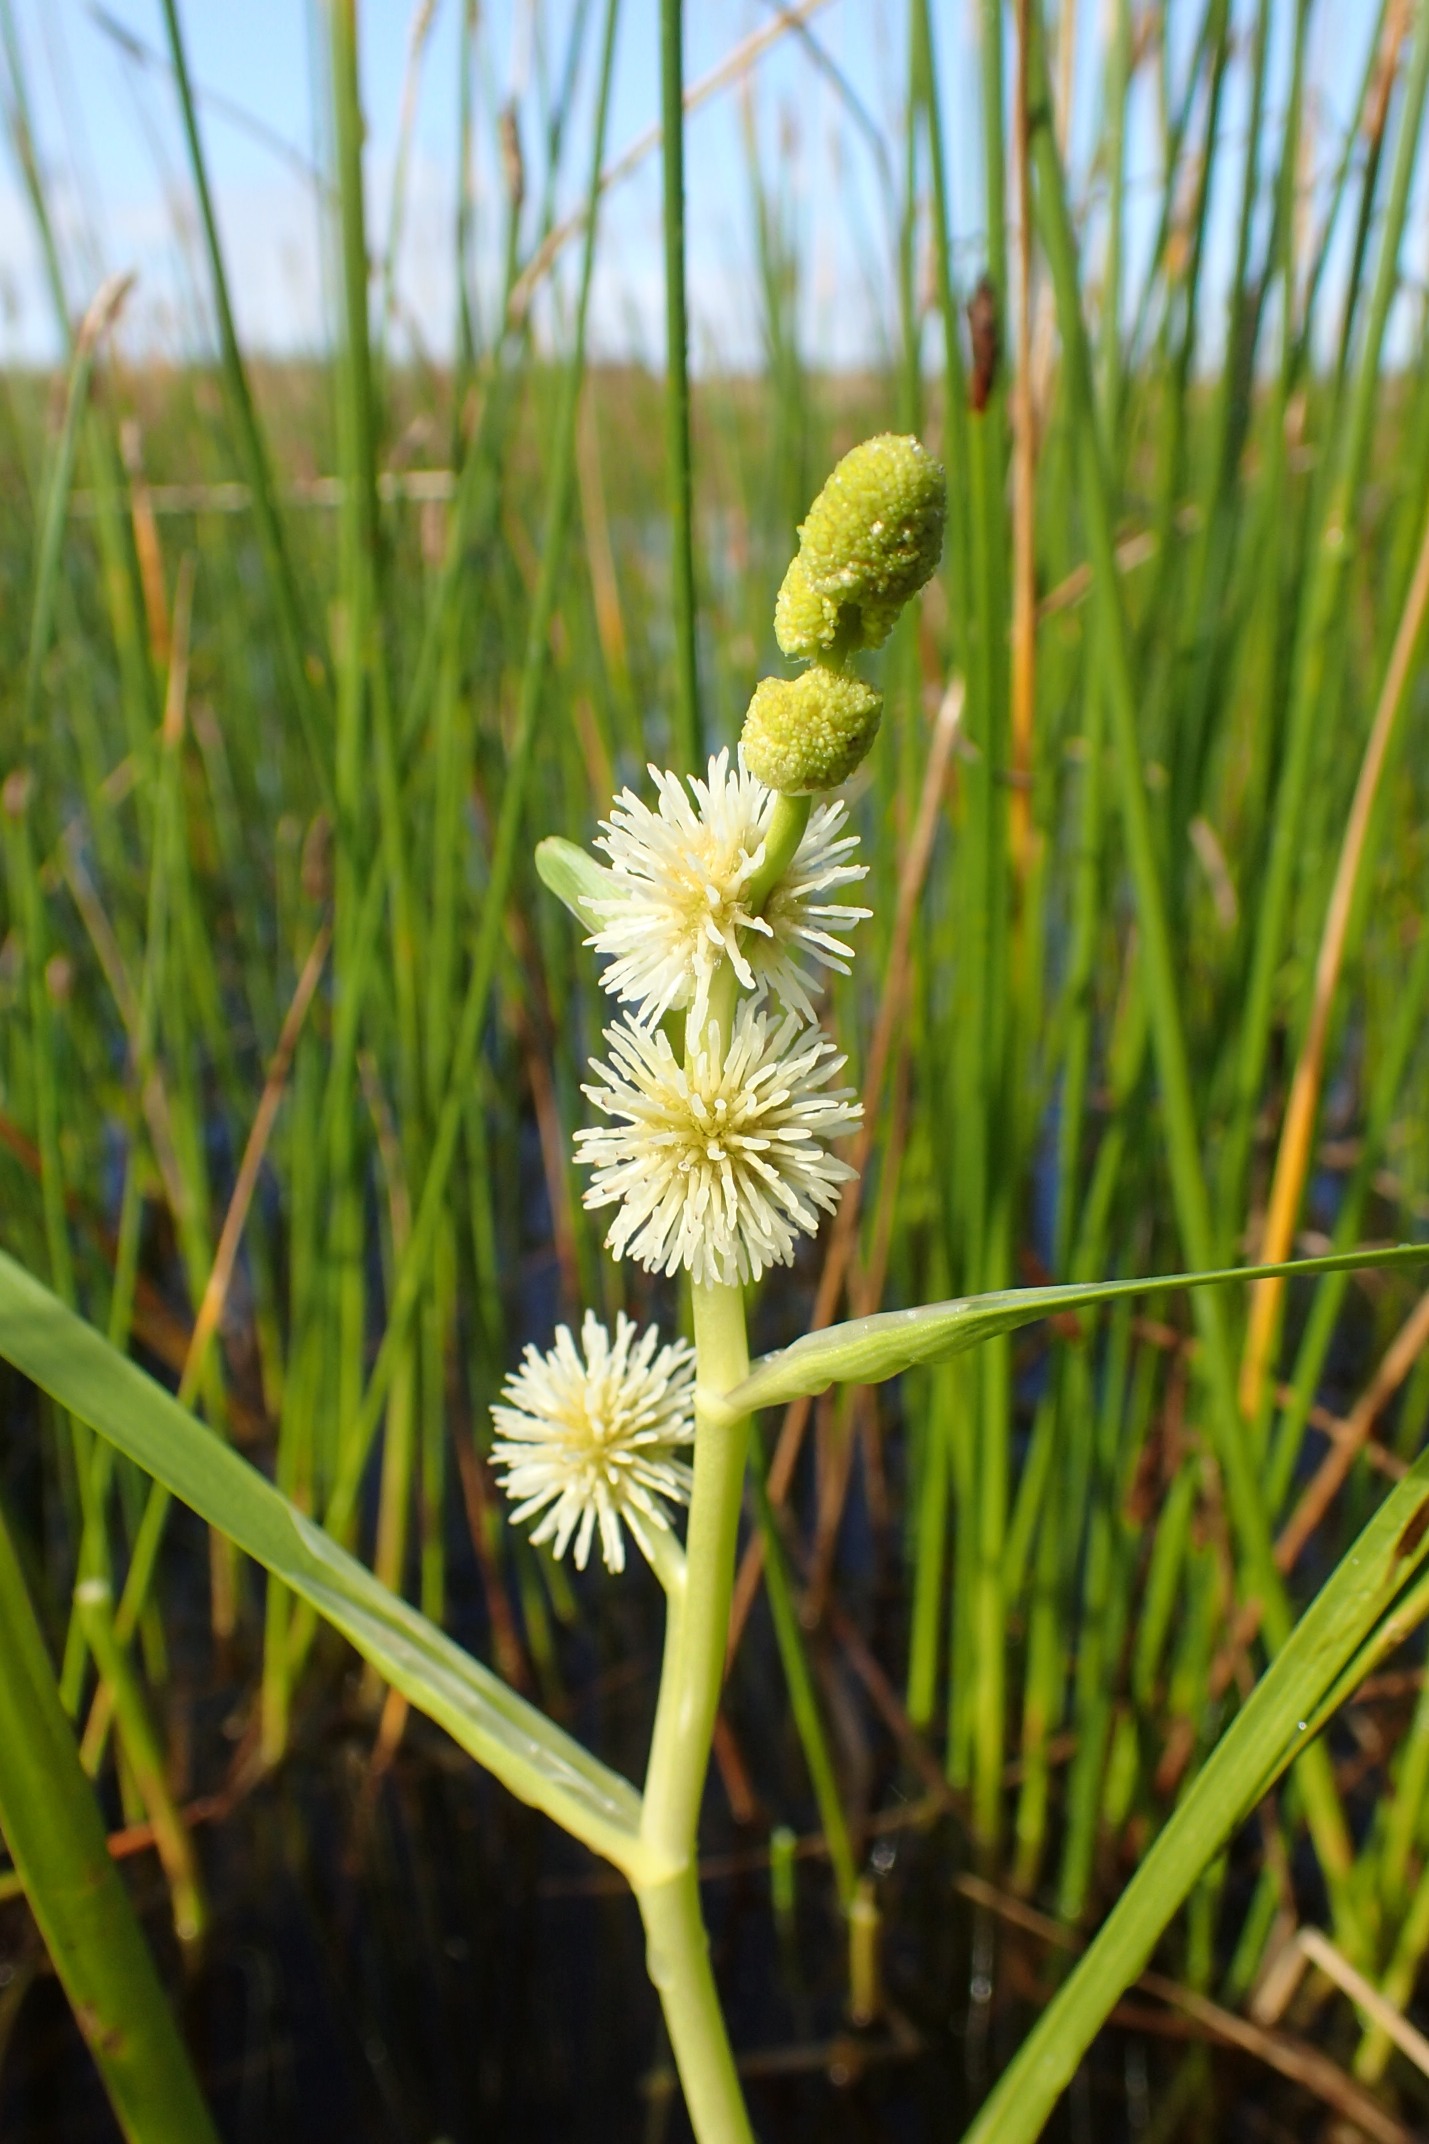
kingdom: Plantae
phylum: Tracheophyta
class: Liliopsida
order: Poales
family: Typhaceae
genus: Sparganium
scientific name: Sparganium emersum
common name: Enkelt pindsvineknop
